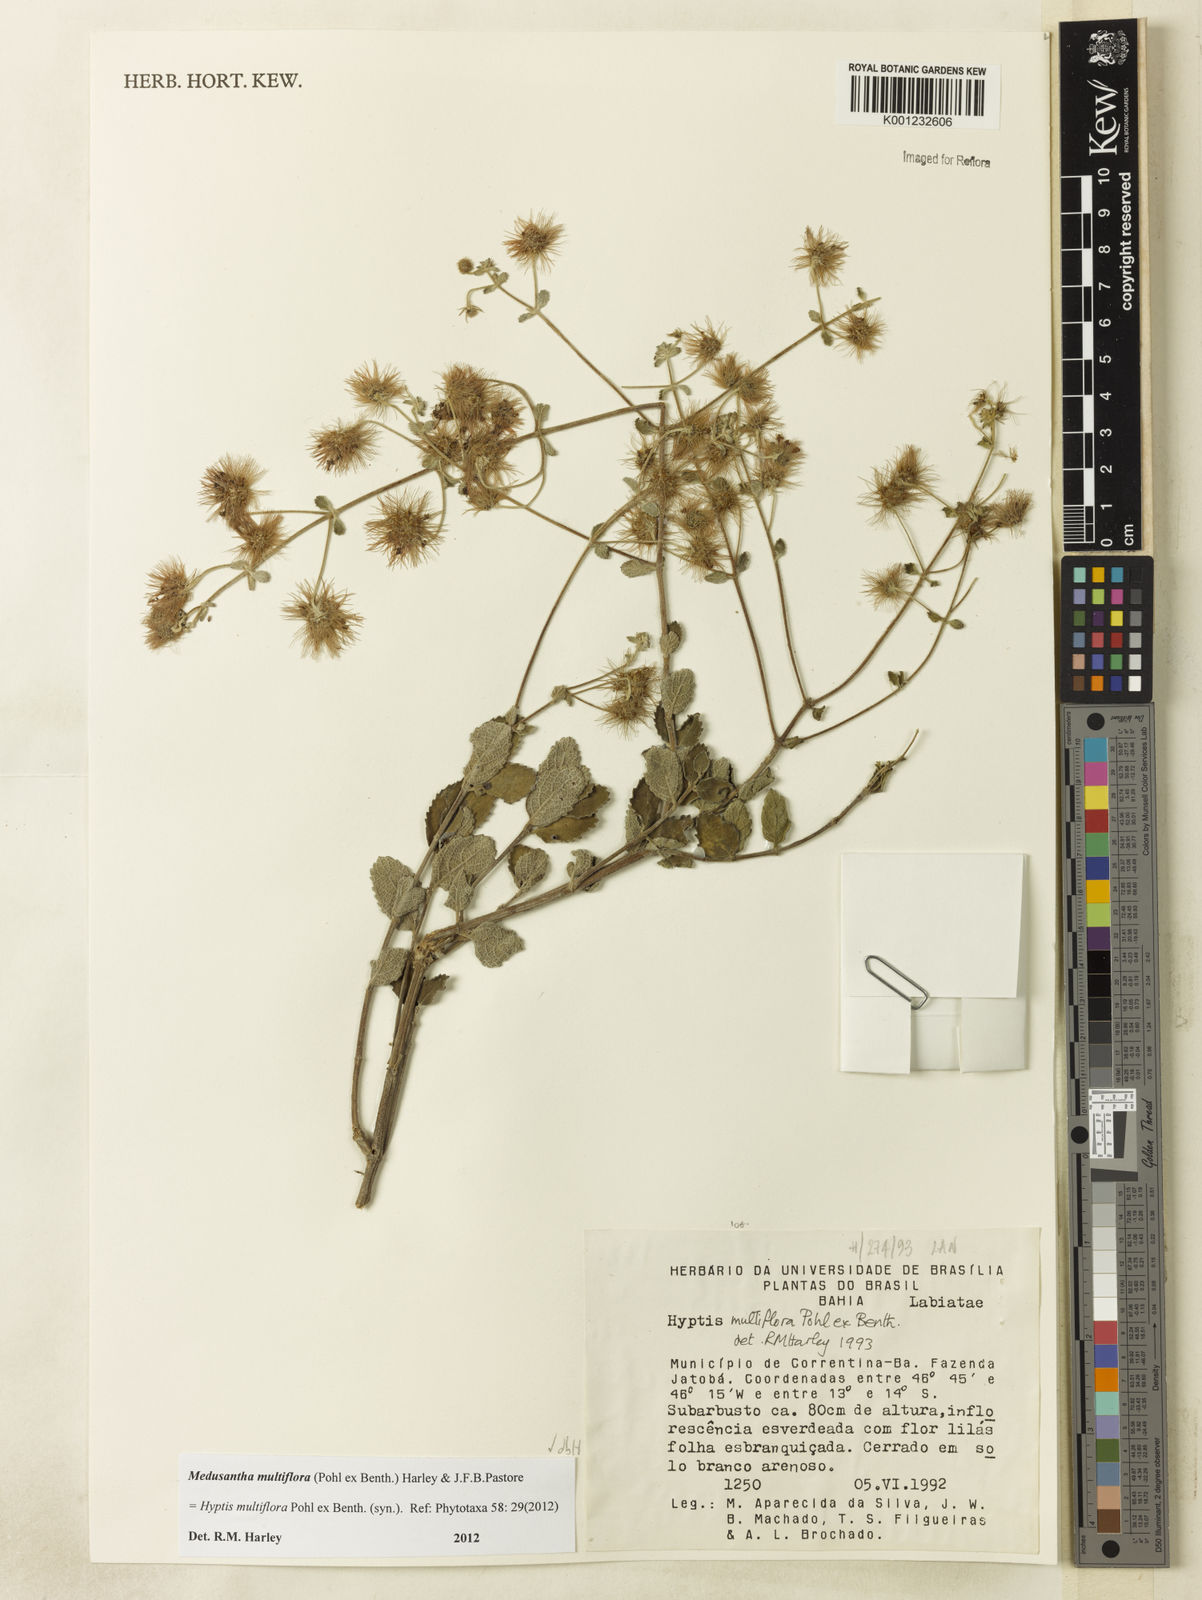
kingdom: Plantae
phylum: Tracheophyta
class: Magnoliopsida
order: Lamiales
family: Lamiaceae
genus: Medusantha
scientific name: Medusantha multiflora
